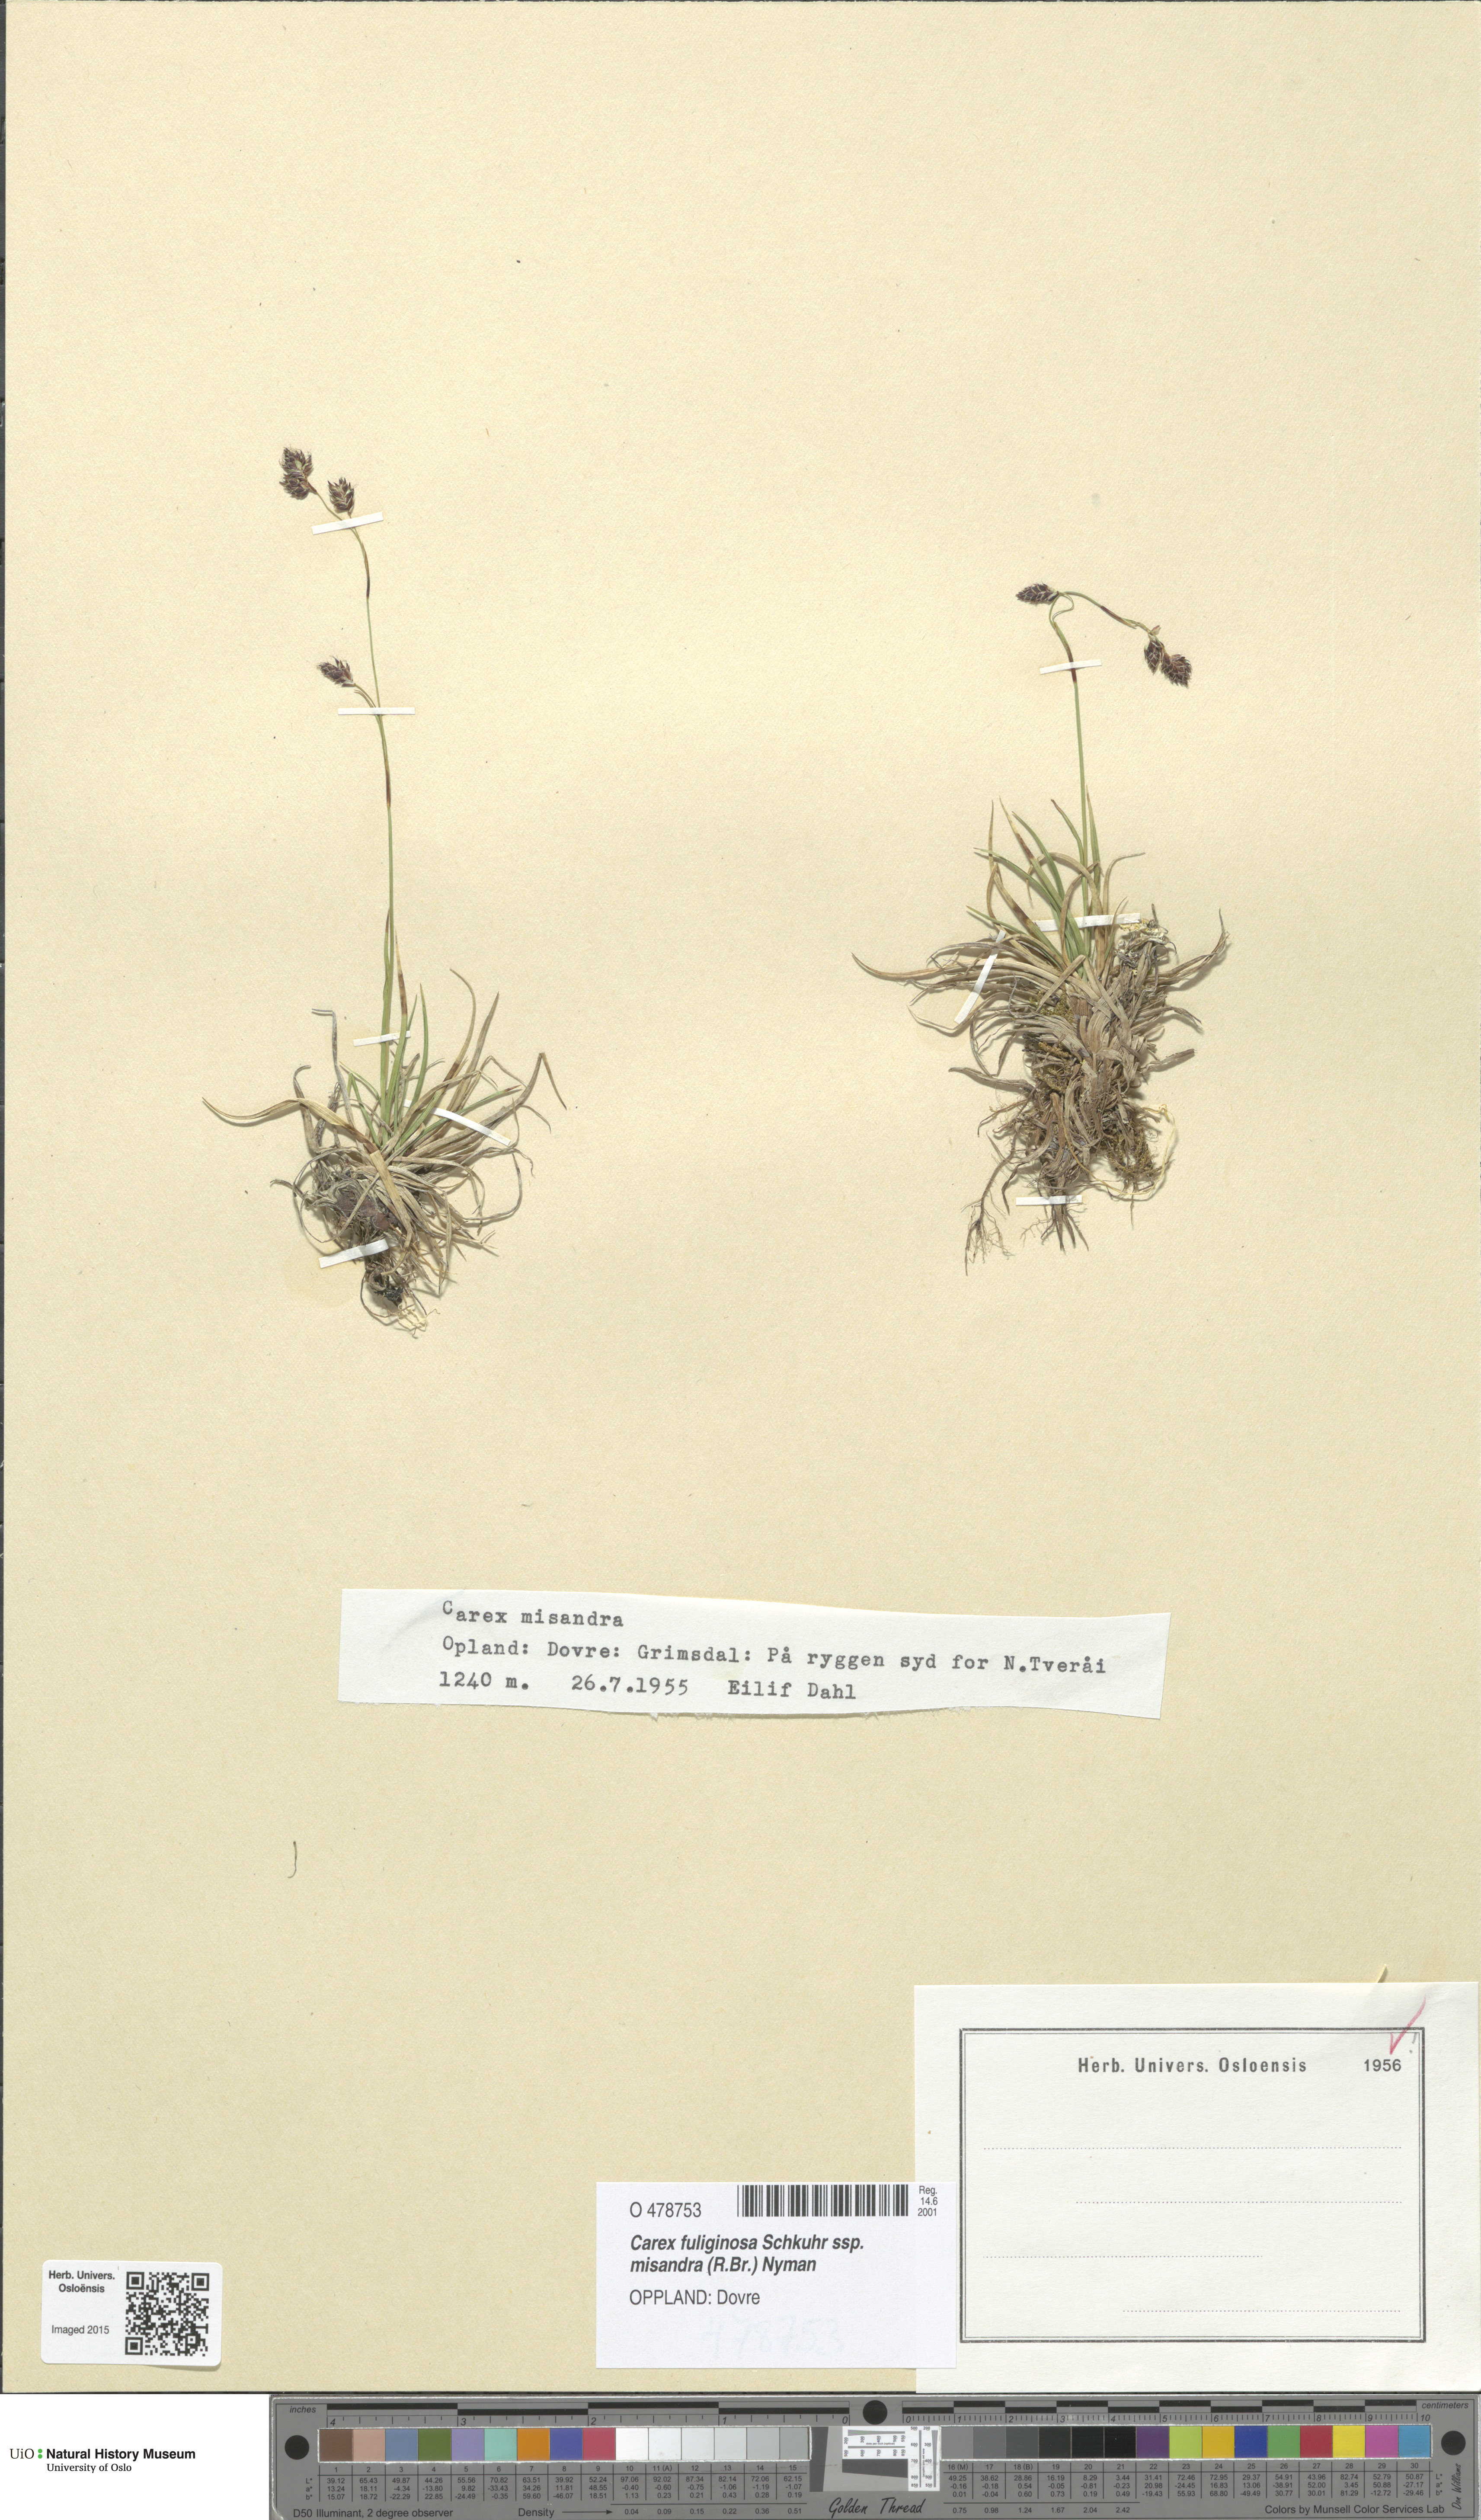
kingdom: Plantae
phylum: Tracheophyta
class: Liliopsida
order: Poales
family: Cyperaceae
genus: Carex
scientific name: Carex fuliginosa
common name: Few-flowered sedge
